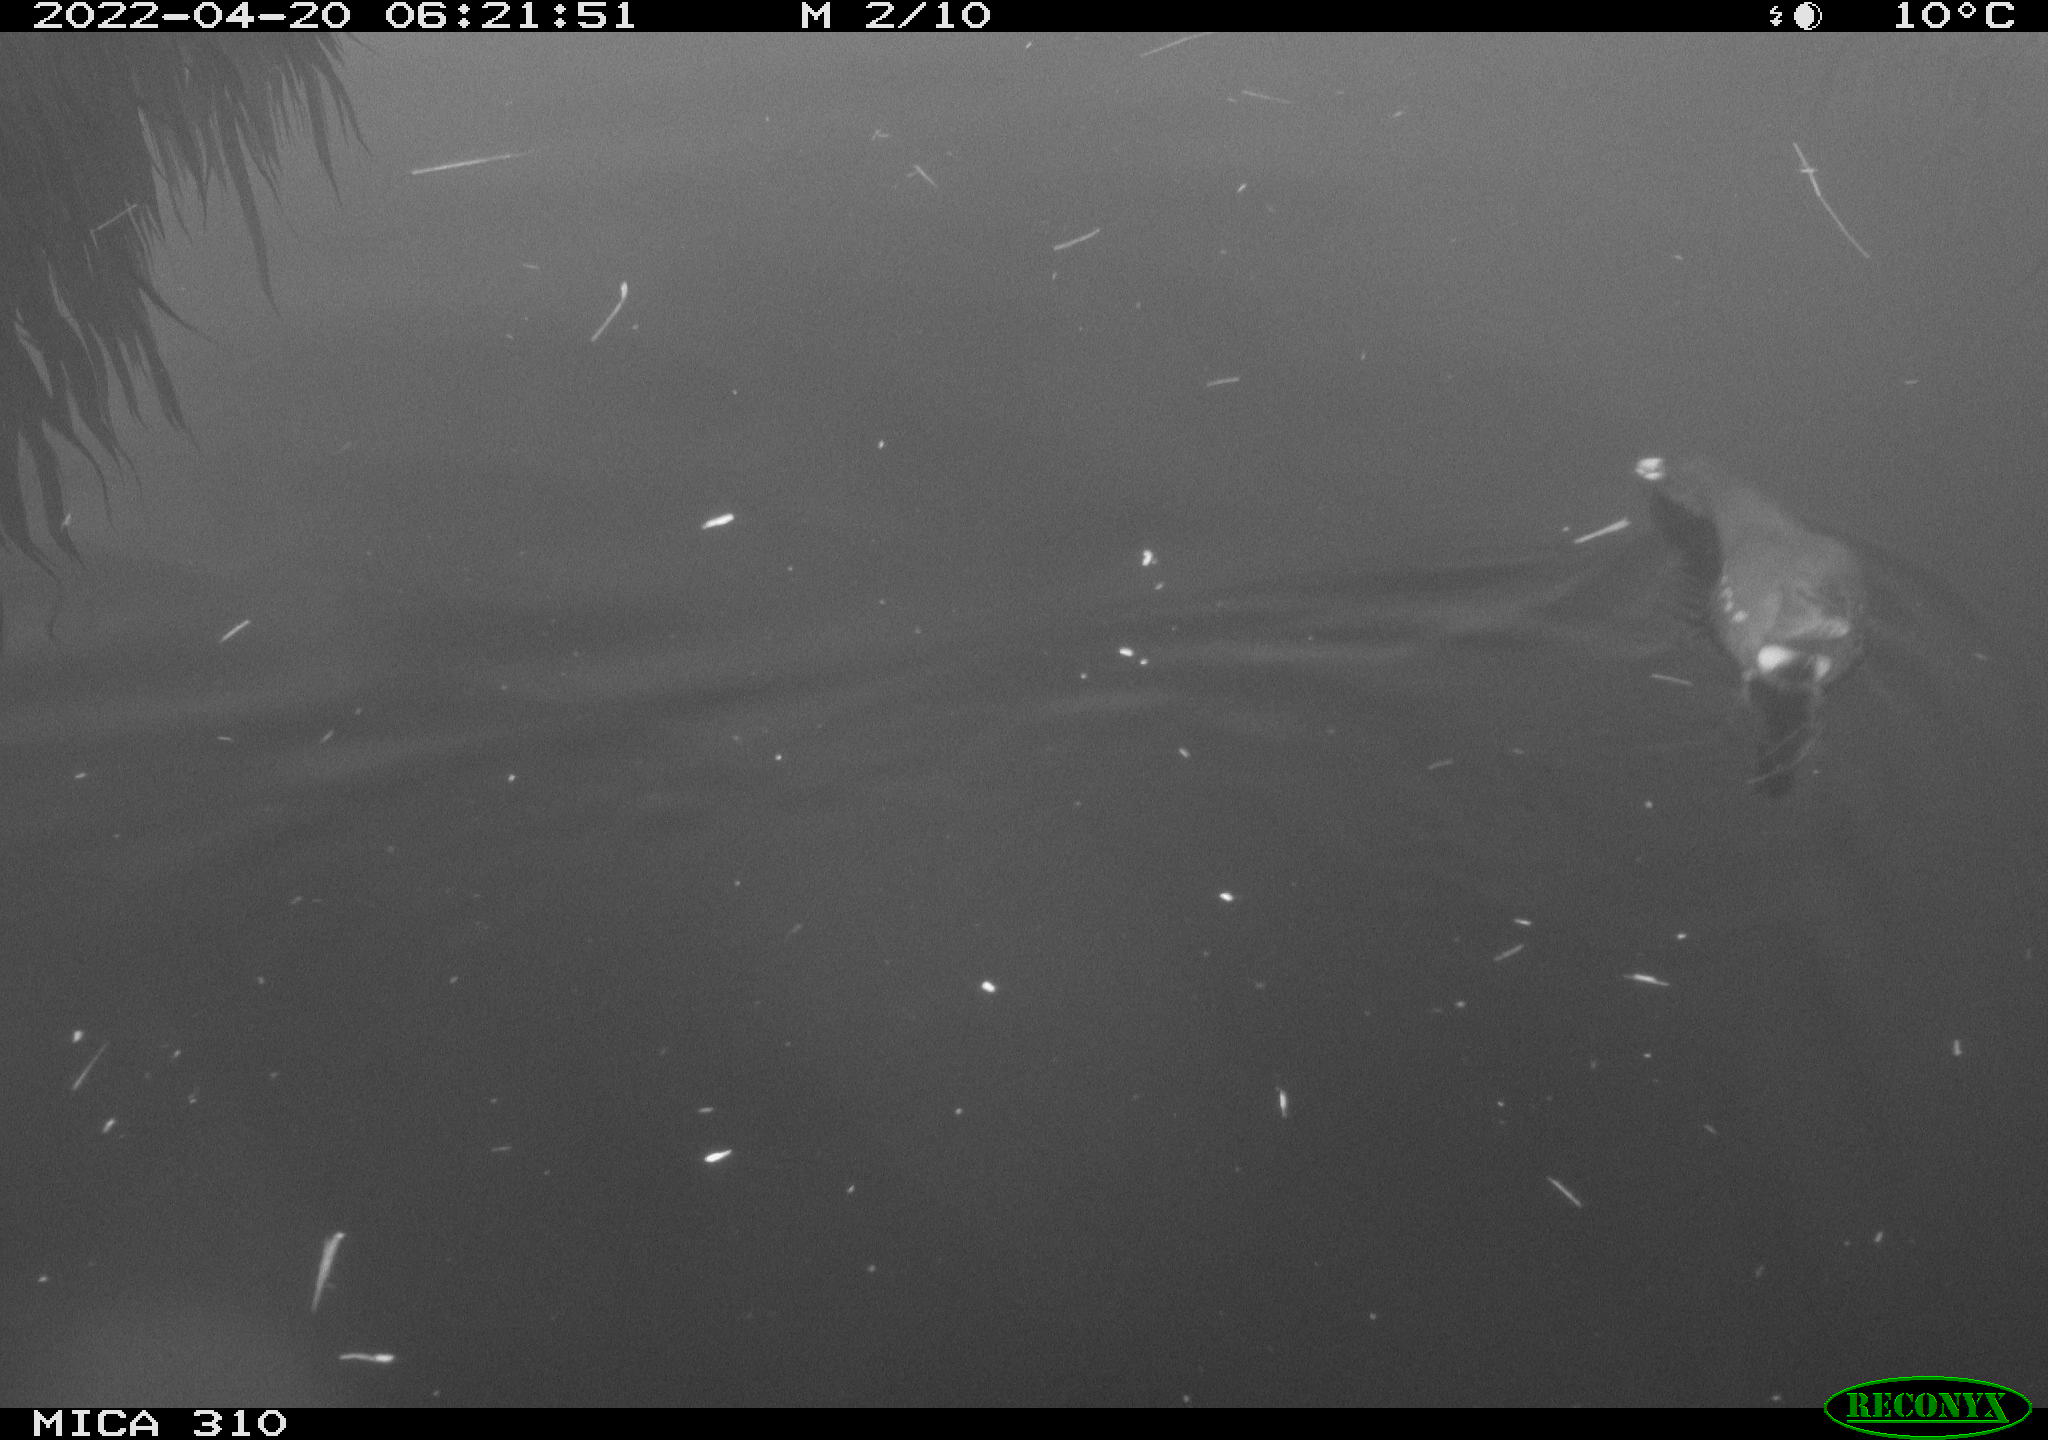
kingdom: Animalia
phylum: Chordata
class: Aves
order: Gruiformes
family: Rallidae
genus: Gallinula
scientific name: Gallinula chloropus
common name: Common moorhen
